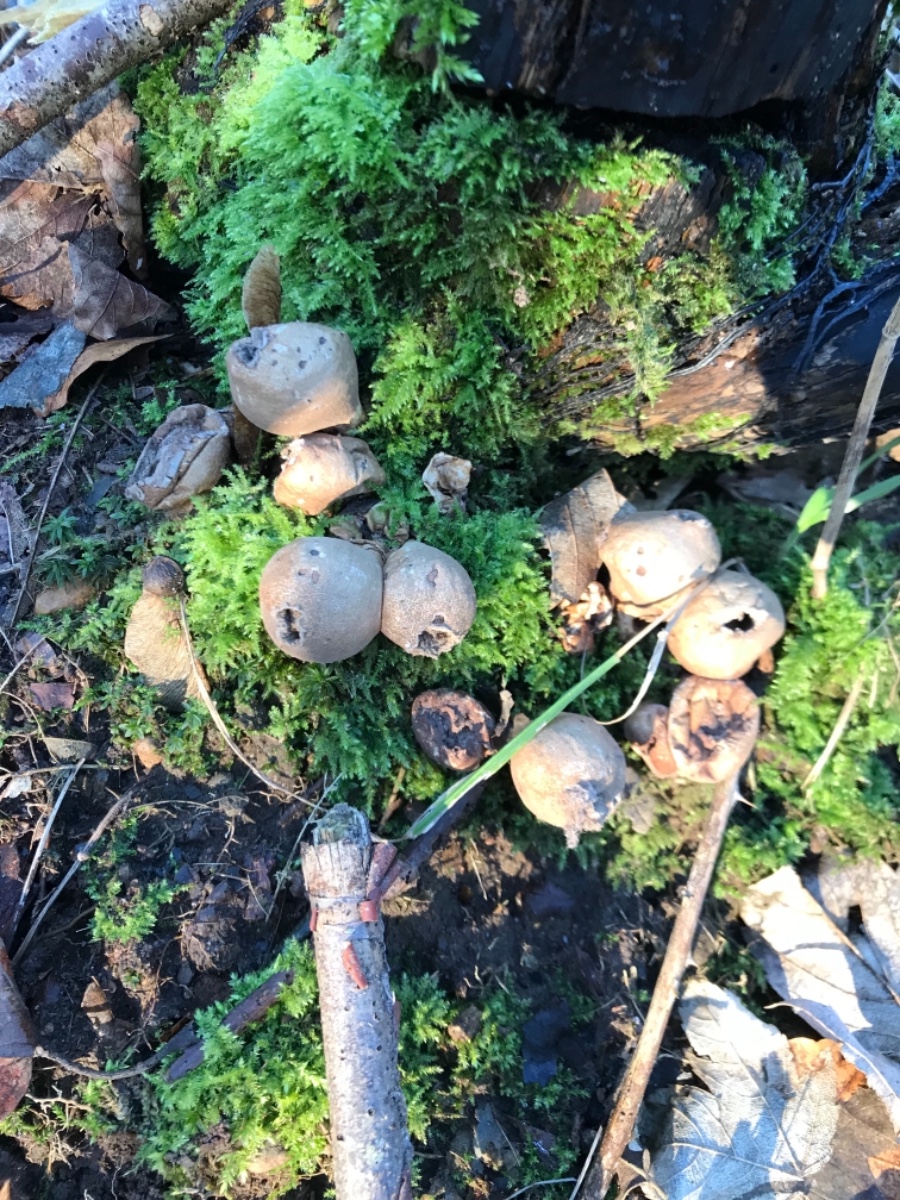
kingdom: Fungi
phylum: Basidiomycota
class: Agaricomycetes
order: Agaricales
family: Lycoperdaceae
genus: Apioperdon
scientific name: Apioperdon pyriforme
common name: pære-støvbold
